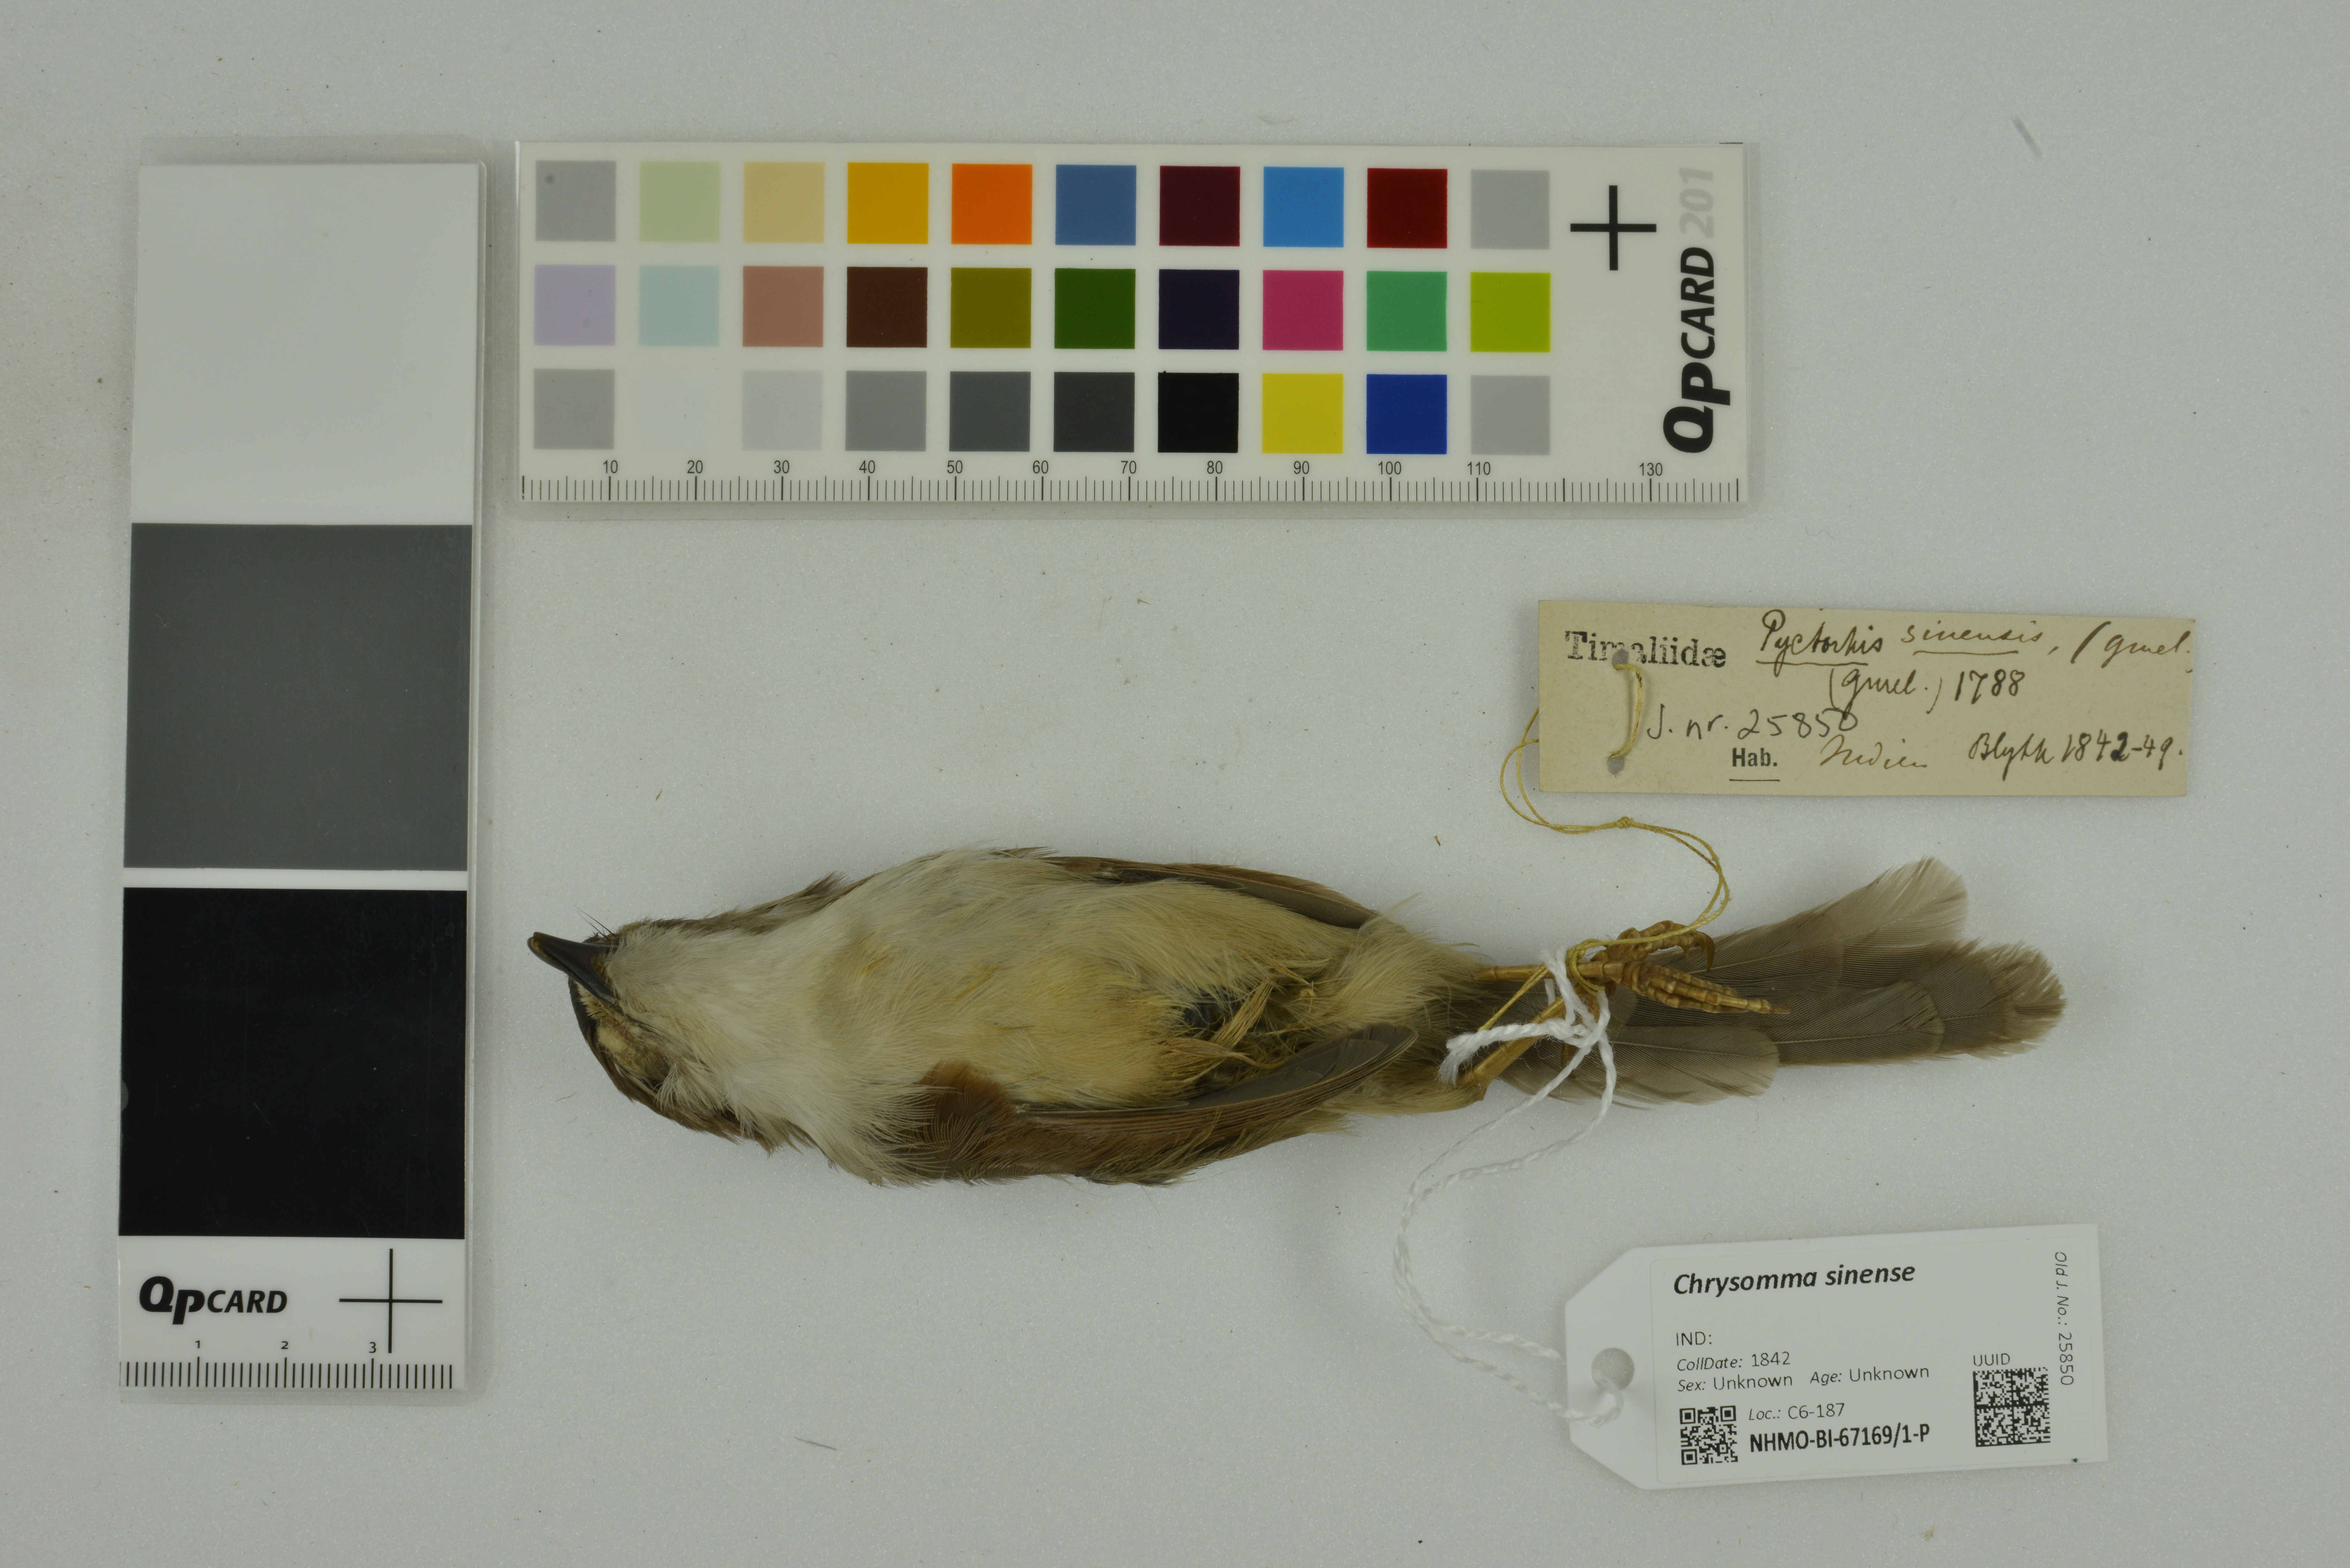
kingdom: Animalia
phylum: Chordata
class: Aves
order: Passeriformes
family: Sylviidae
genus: Chrysomma
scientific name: Chrysomma sinense
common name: Yellow-eyed babbler
